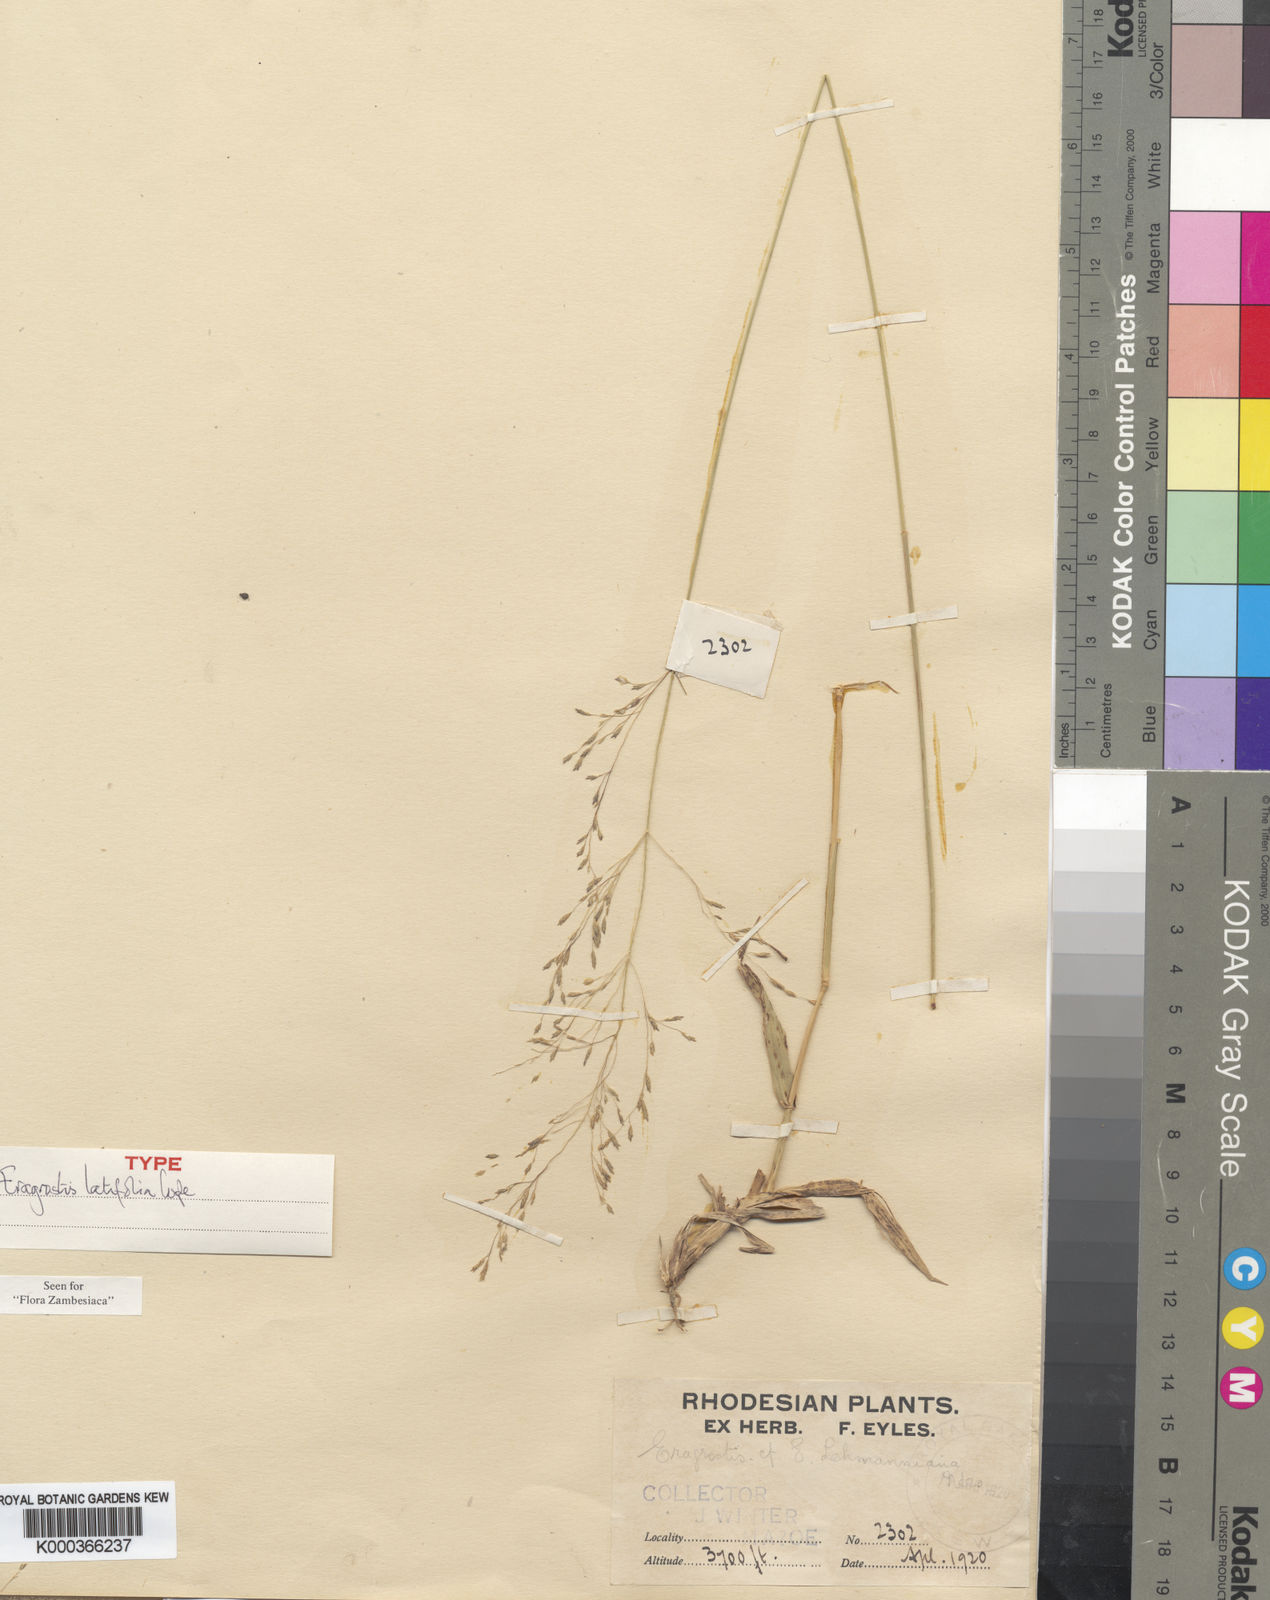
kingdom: Plantae
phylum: Tracheophyta
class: Liliopsida
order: Poales
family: Poaceae
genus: Eragrostis
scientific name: Eragrostis latifolia
